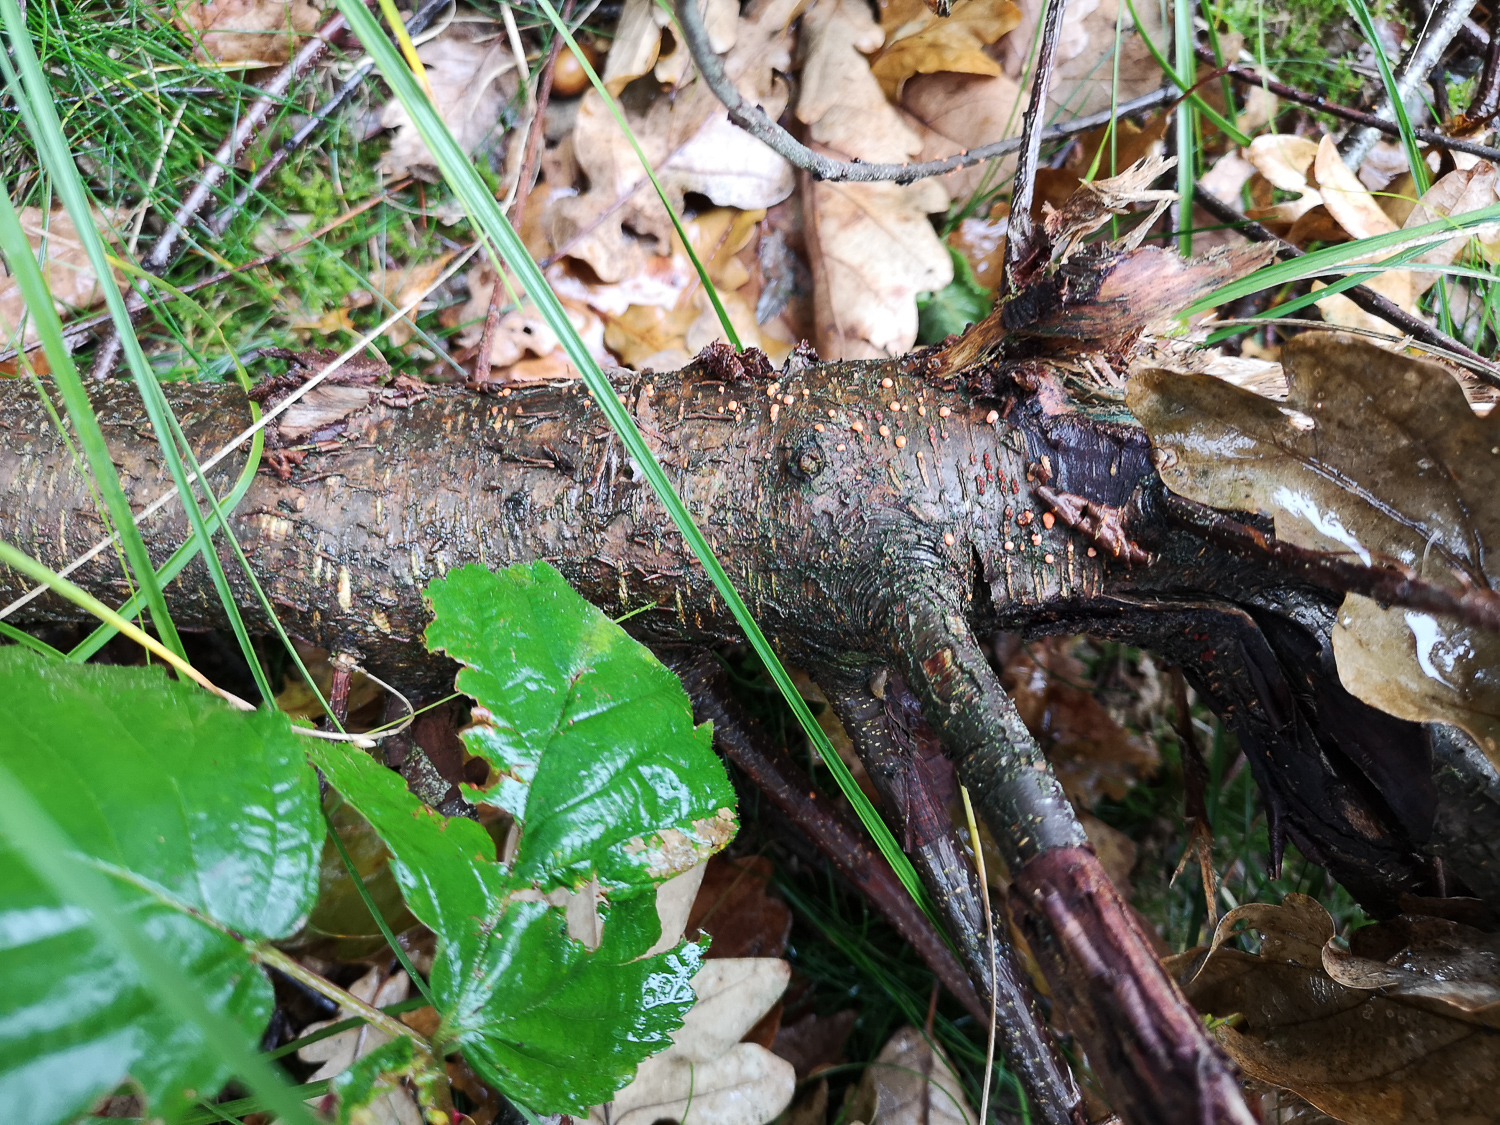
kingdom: Fungi
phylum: Ascomycota
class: Sordariomycetes
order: Hypocreales
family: Nectriaceae
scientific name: Nectriaceae
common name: cinnobersvampfamilien
